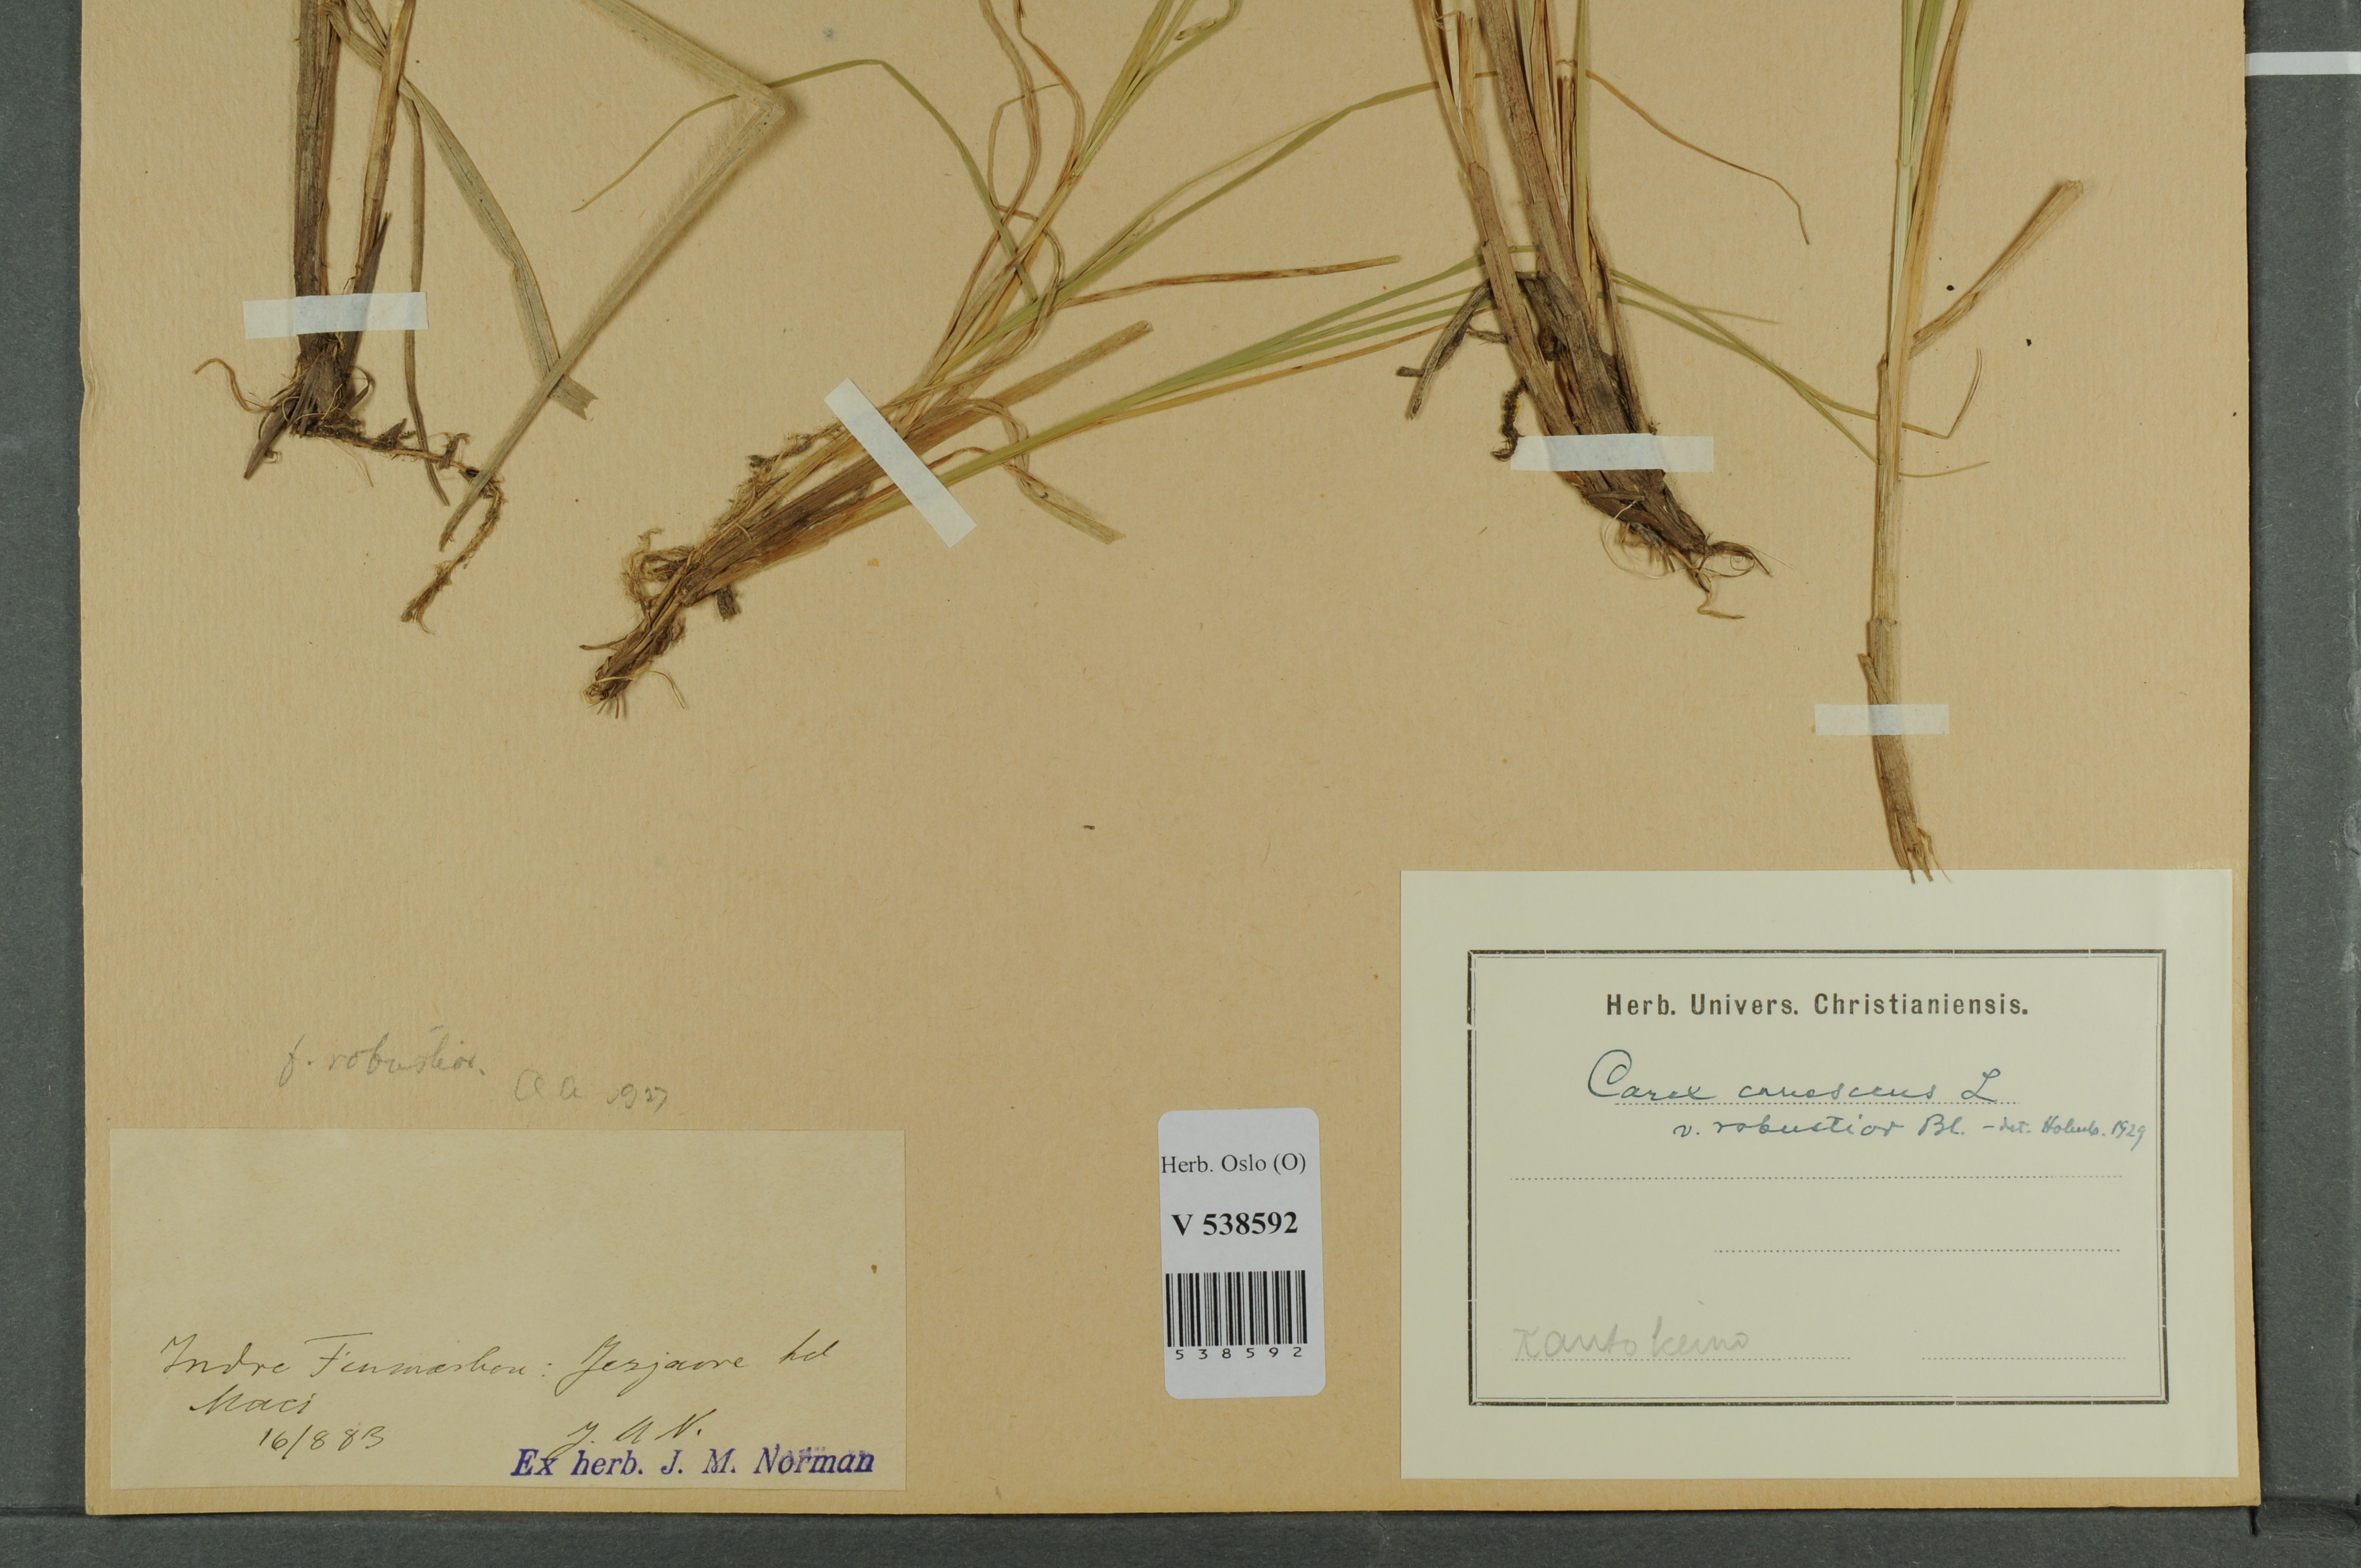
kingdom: Plantae
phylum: Tracheophyta
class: Liliopsida
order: Poales
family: Cyperaceae
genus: Carex
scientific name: Carex canescens
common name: White sedge
